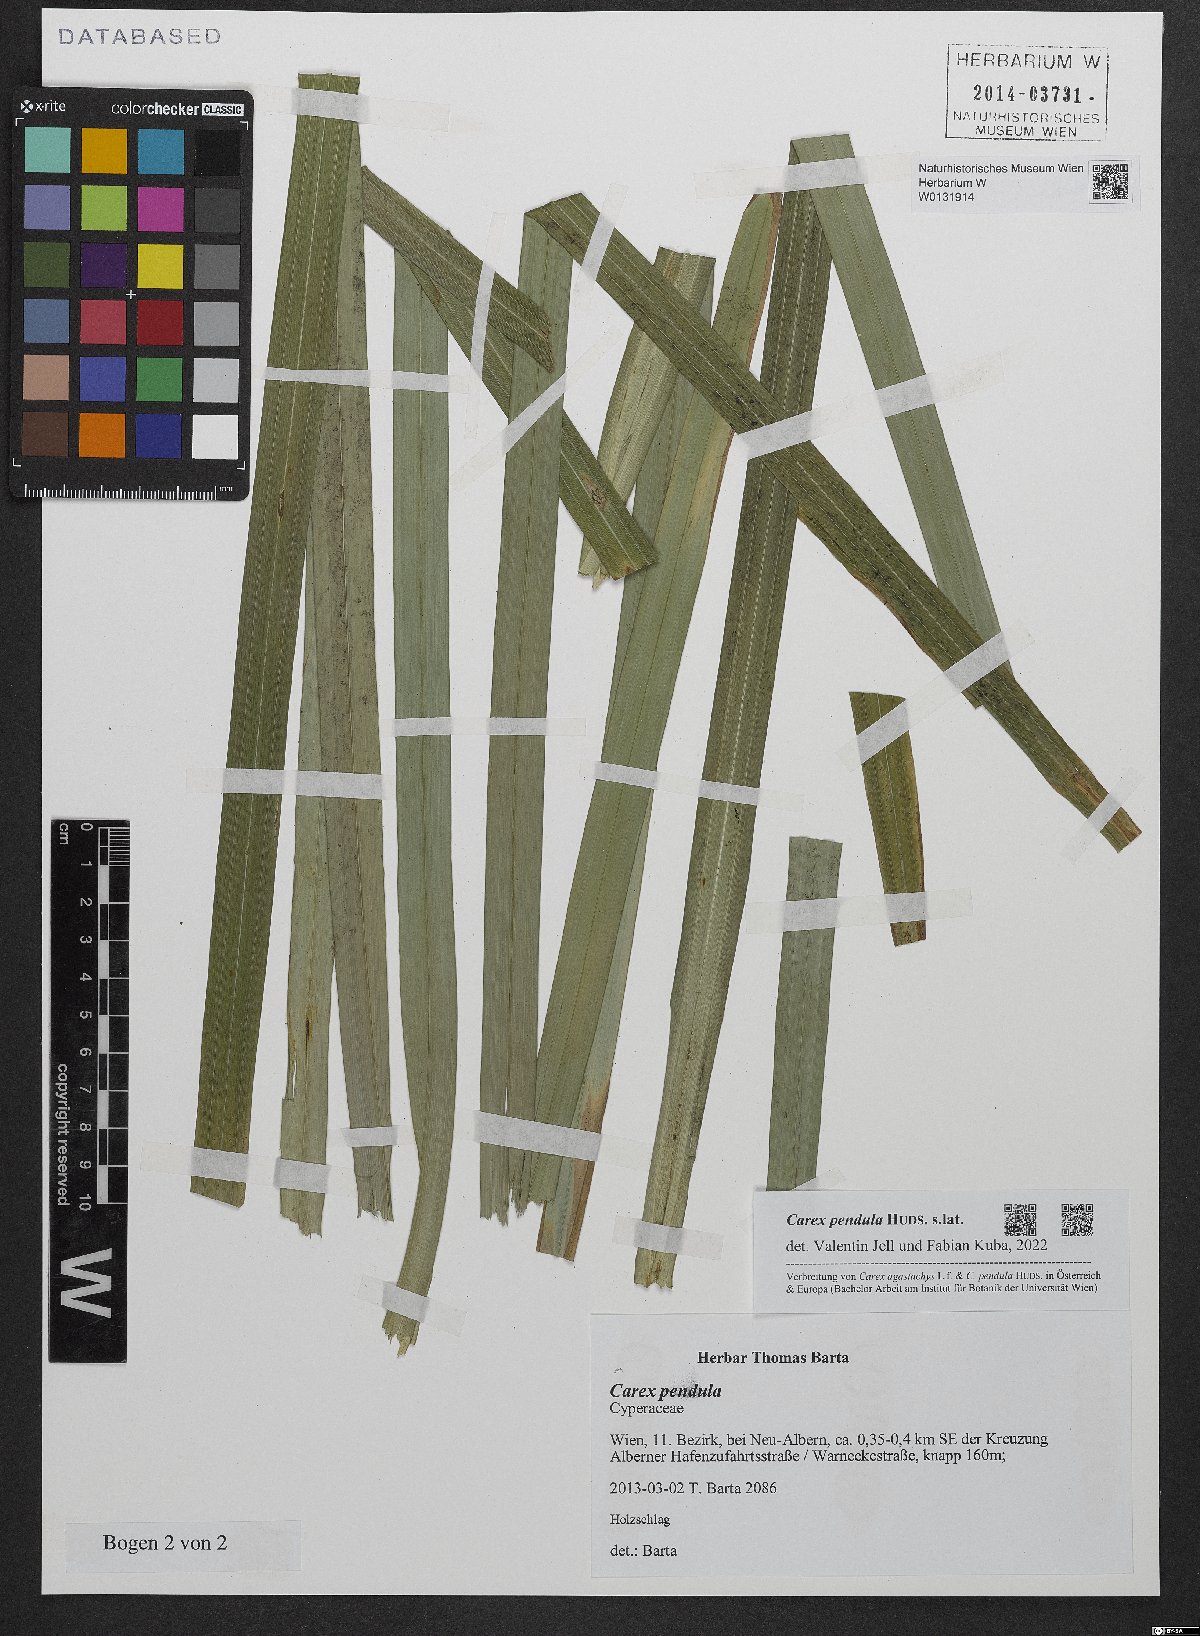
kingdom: Plantae
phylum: Tracheophyta
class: Liliopsida
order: Poales
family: Cyperaceae
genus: Carex
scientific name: Carex pendula
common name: Pendulous sedge
